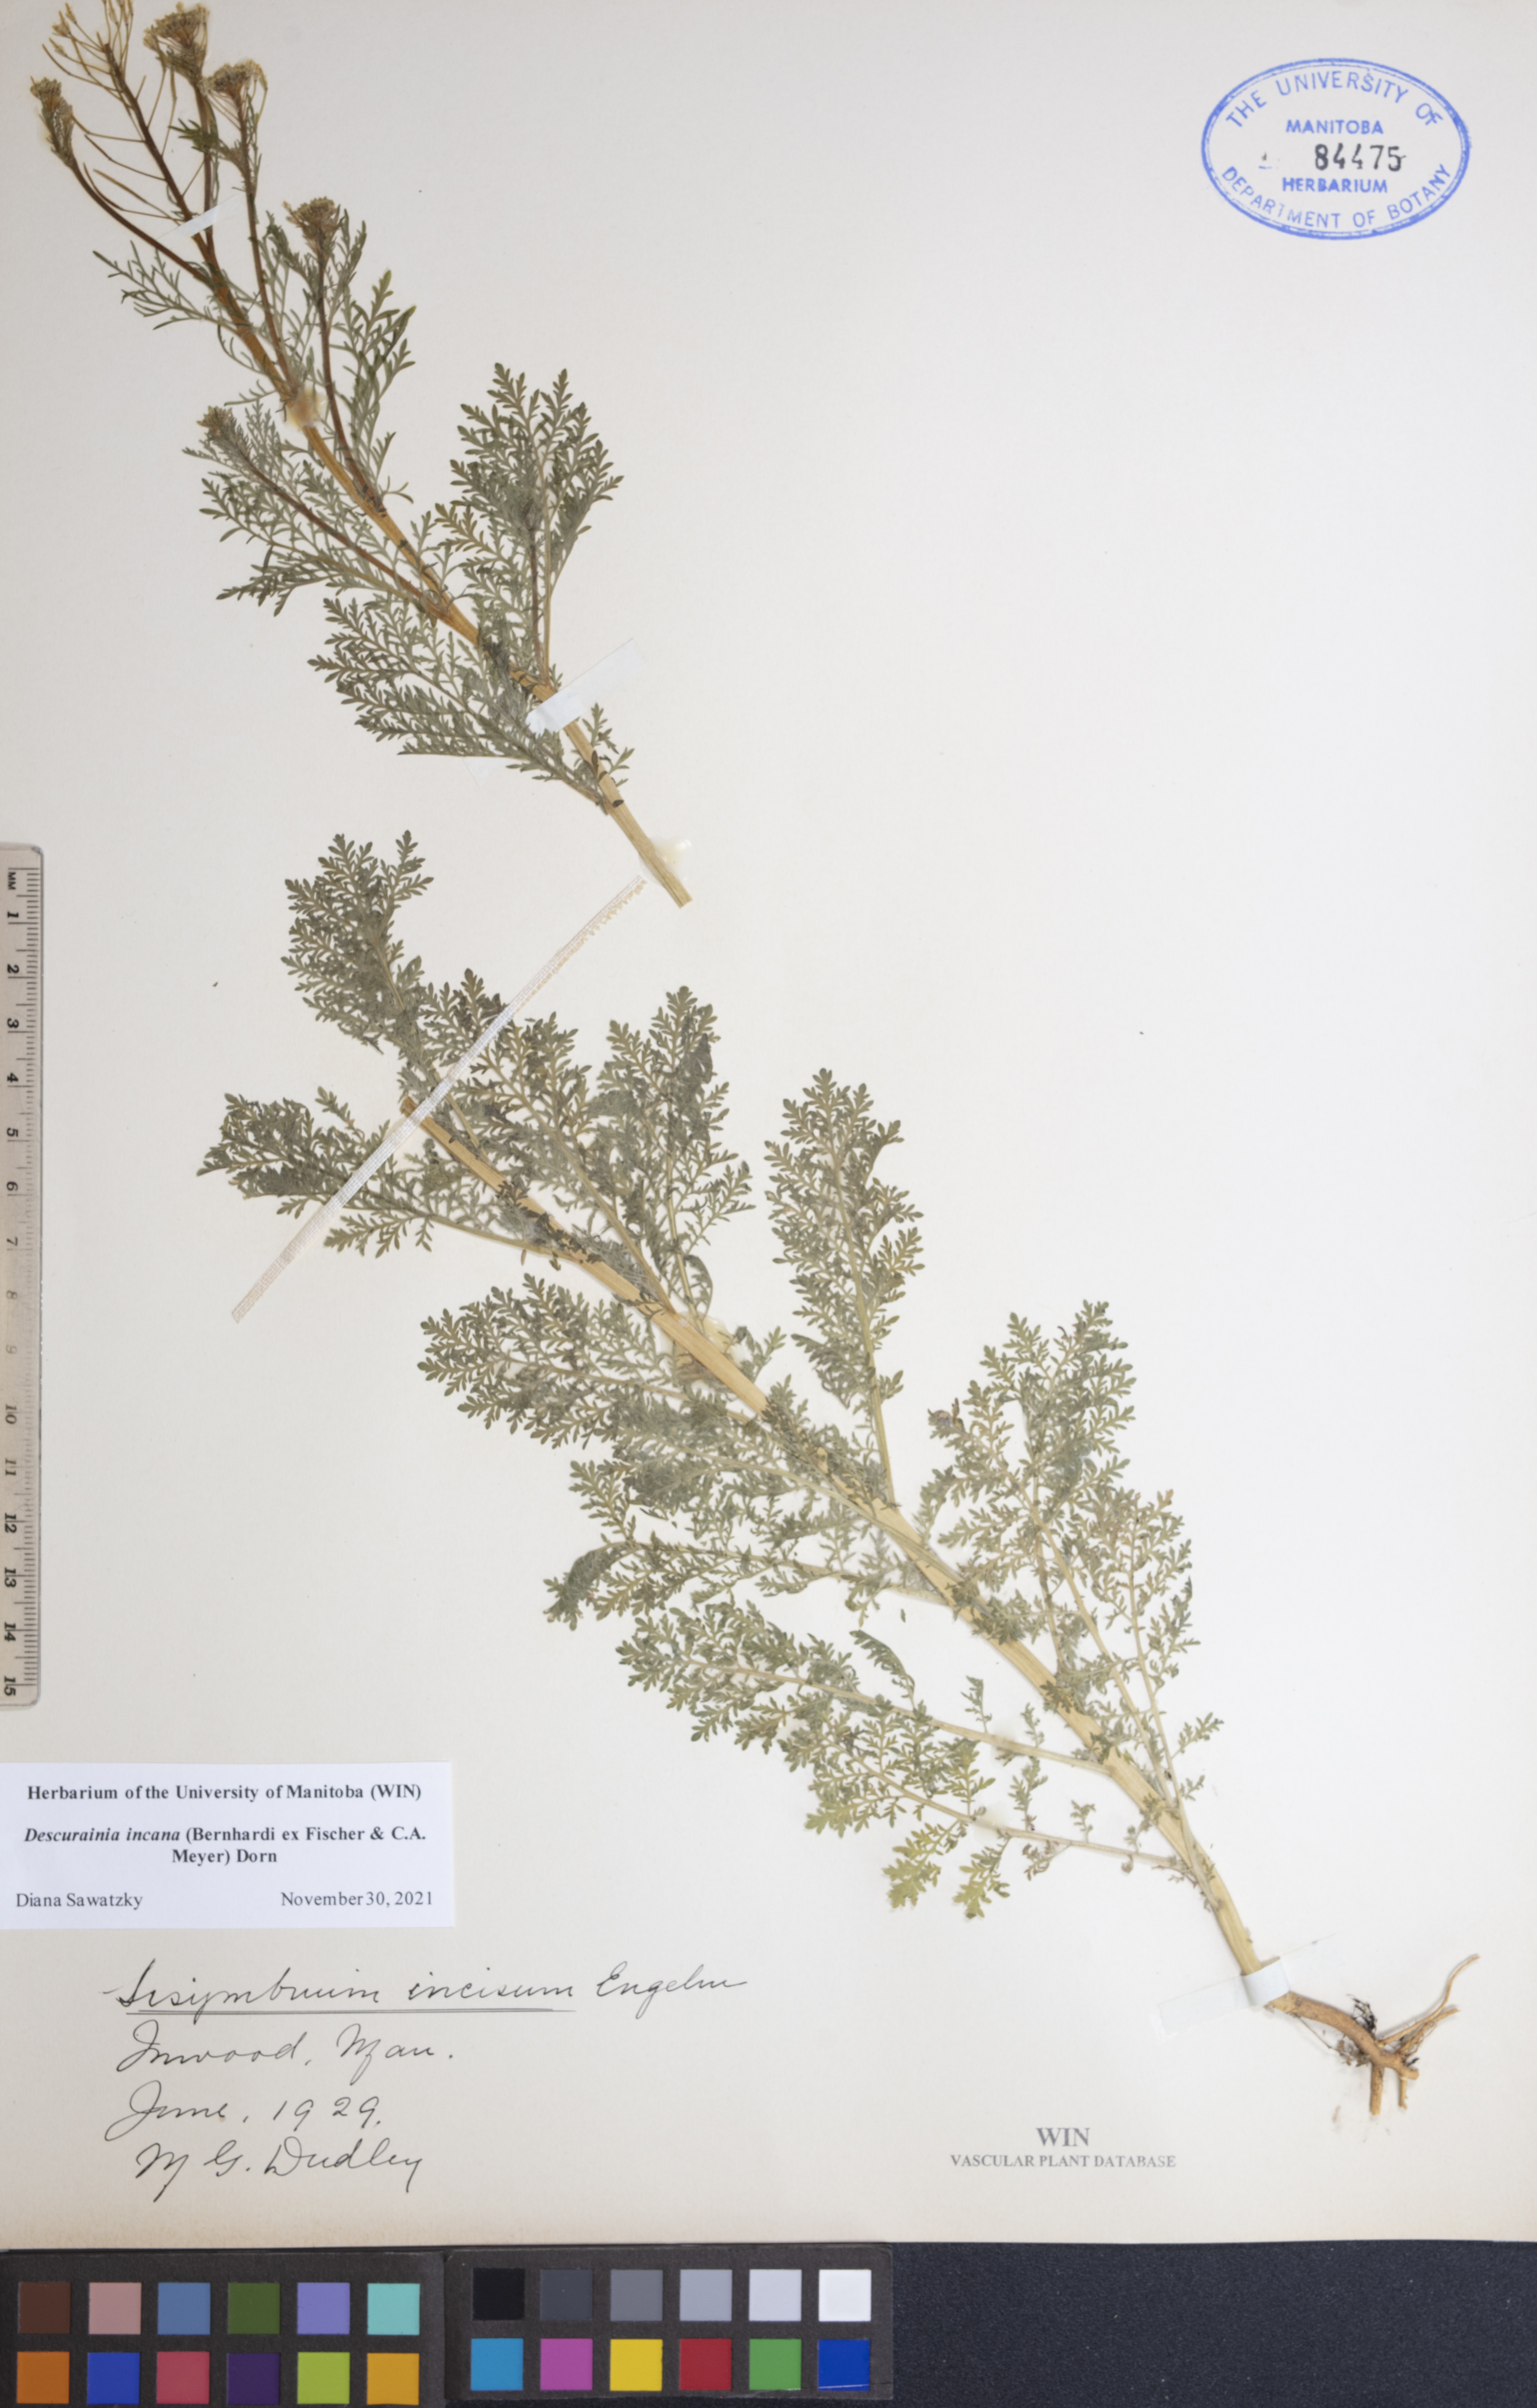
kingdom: Plantae
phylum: Tracheophyta
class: Magnoliopsida
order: Brassicales
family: Brassicaceae
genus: Descurainia
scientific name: Descurainia incana
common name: Gray tansy mustard
